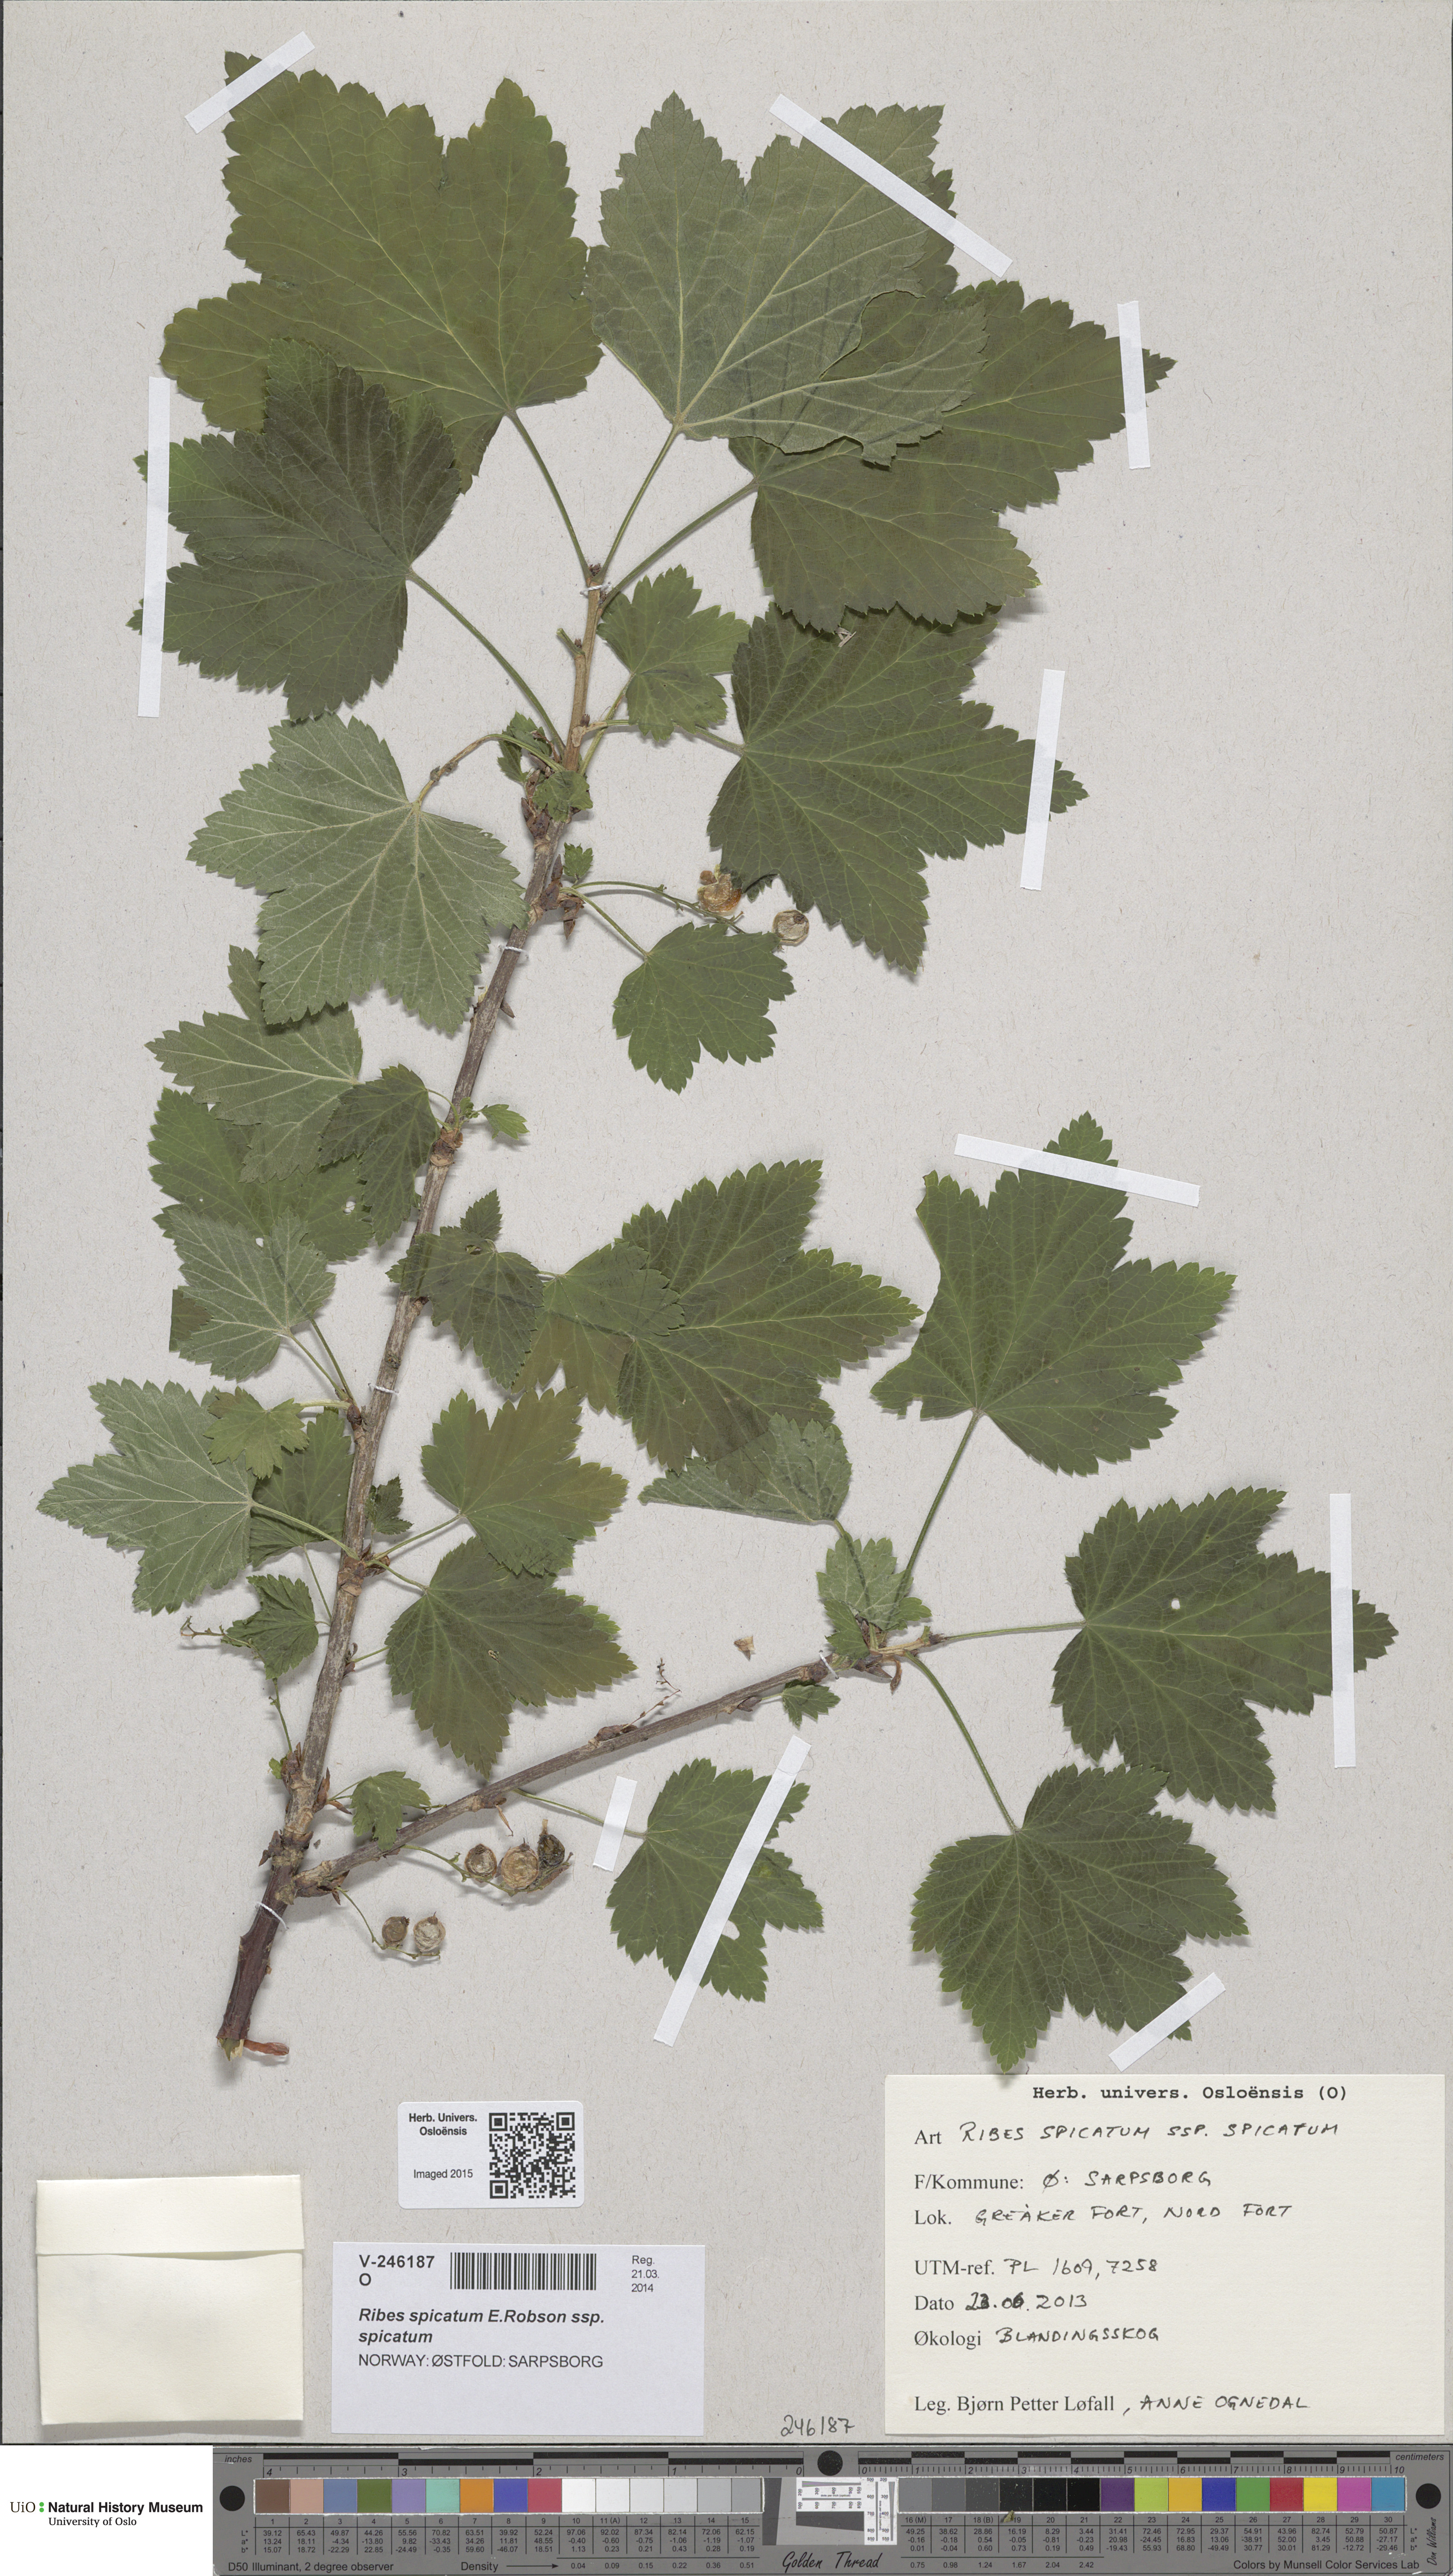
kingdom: Plantae
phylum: Tracheophyta
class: Magnoliopsida
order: Saxifragales
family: Grossulariaceae
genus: Ribes
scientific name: Ribes spicatum
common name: Downy currant
